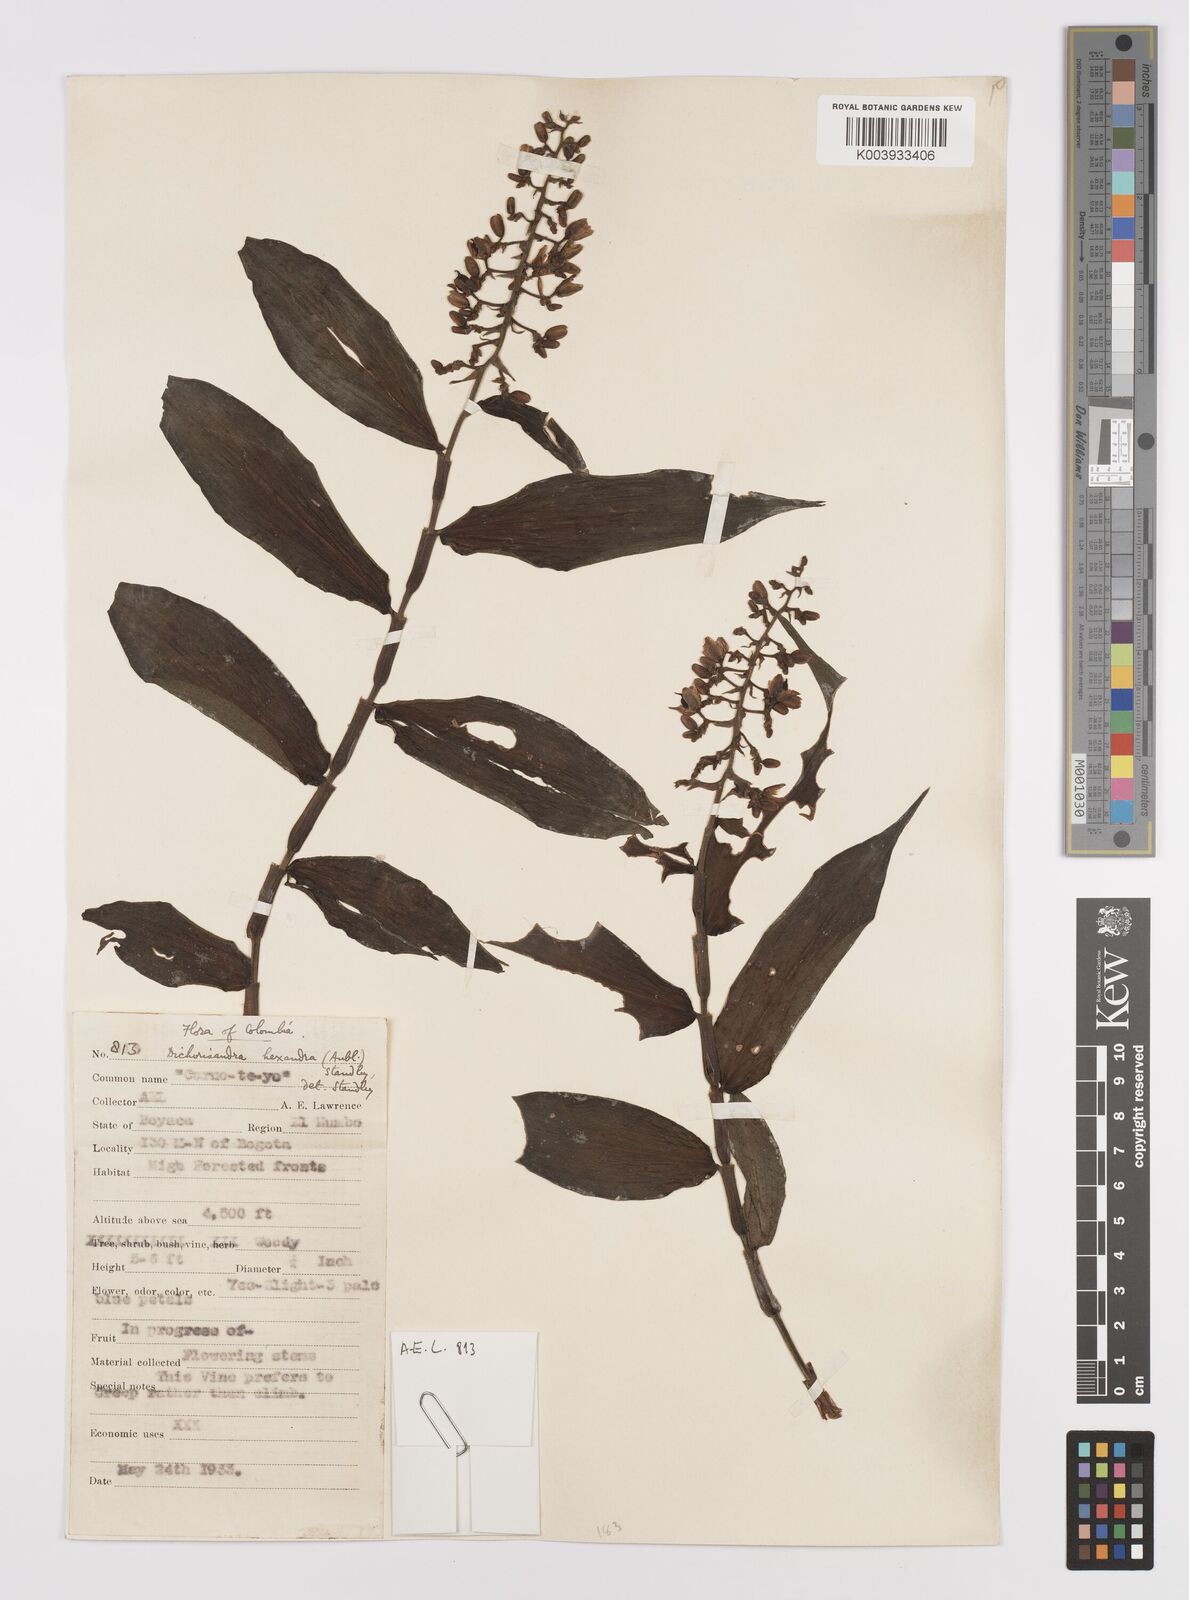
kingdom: Plantae
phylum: Tracheophyta
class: Liliopsida
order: Commelinales
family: Commelinaceae
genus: Dichorisandra
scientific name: Dichorisandra hexandra
